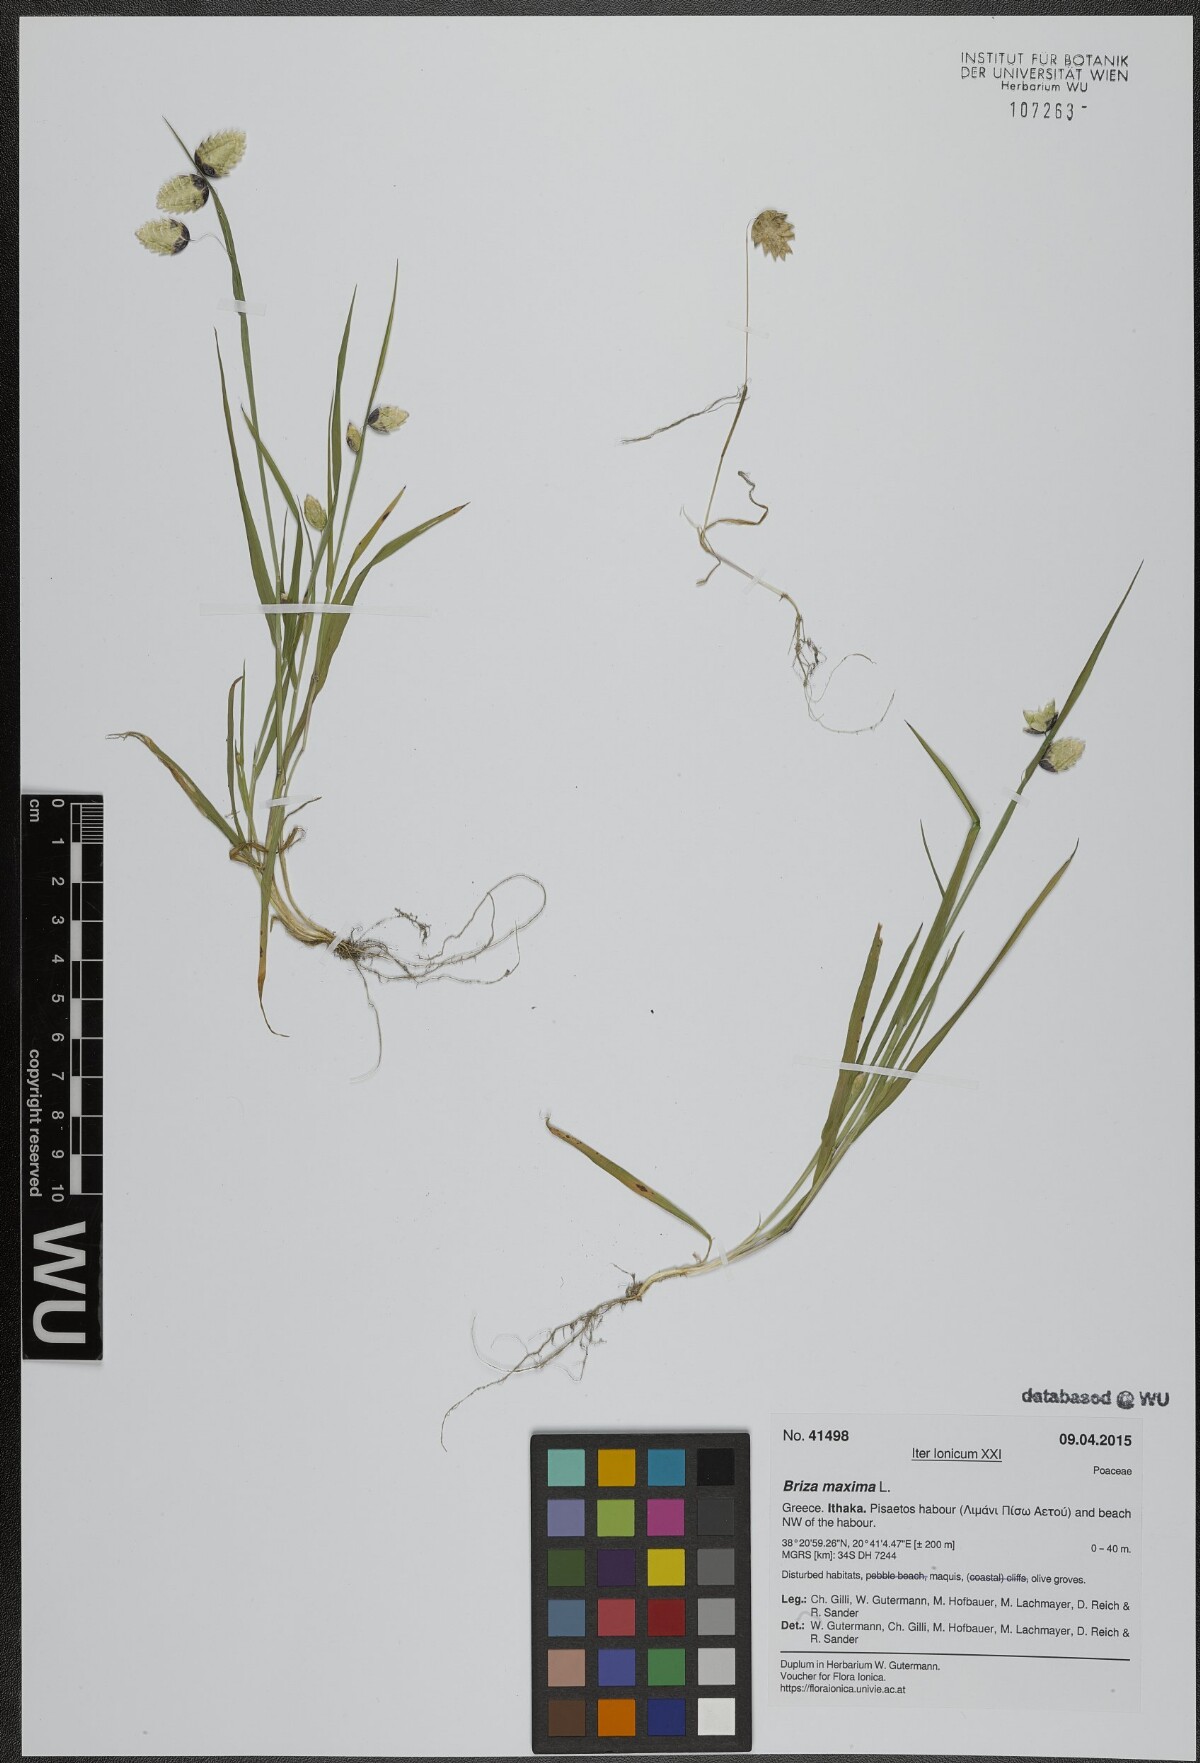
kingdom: Plantae
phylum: Tracheophyta
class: Liliopsida
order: Poales
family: Poaceae
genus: Briza
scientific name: Briza maxima
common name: Big quakinggrass
